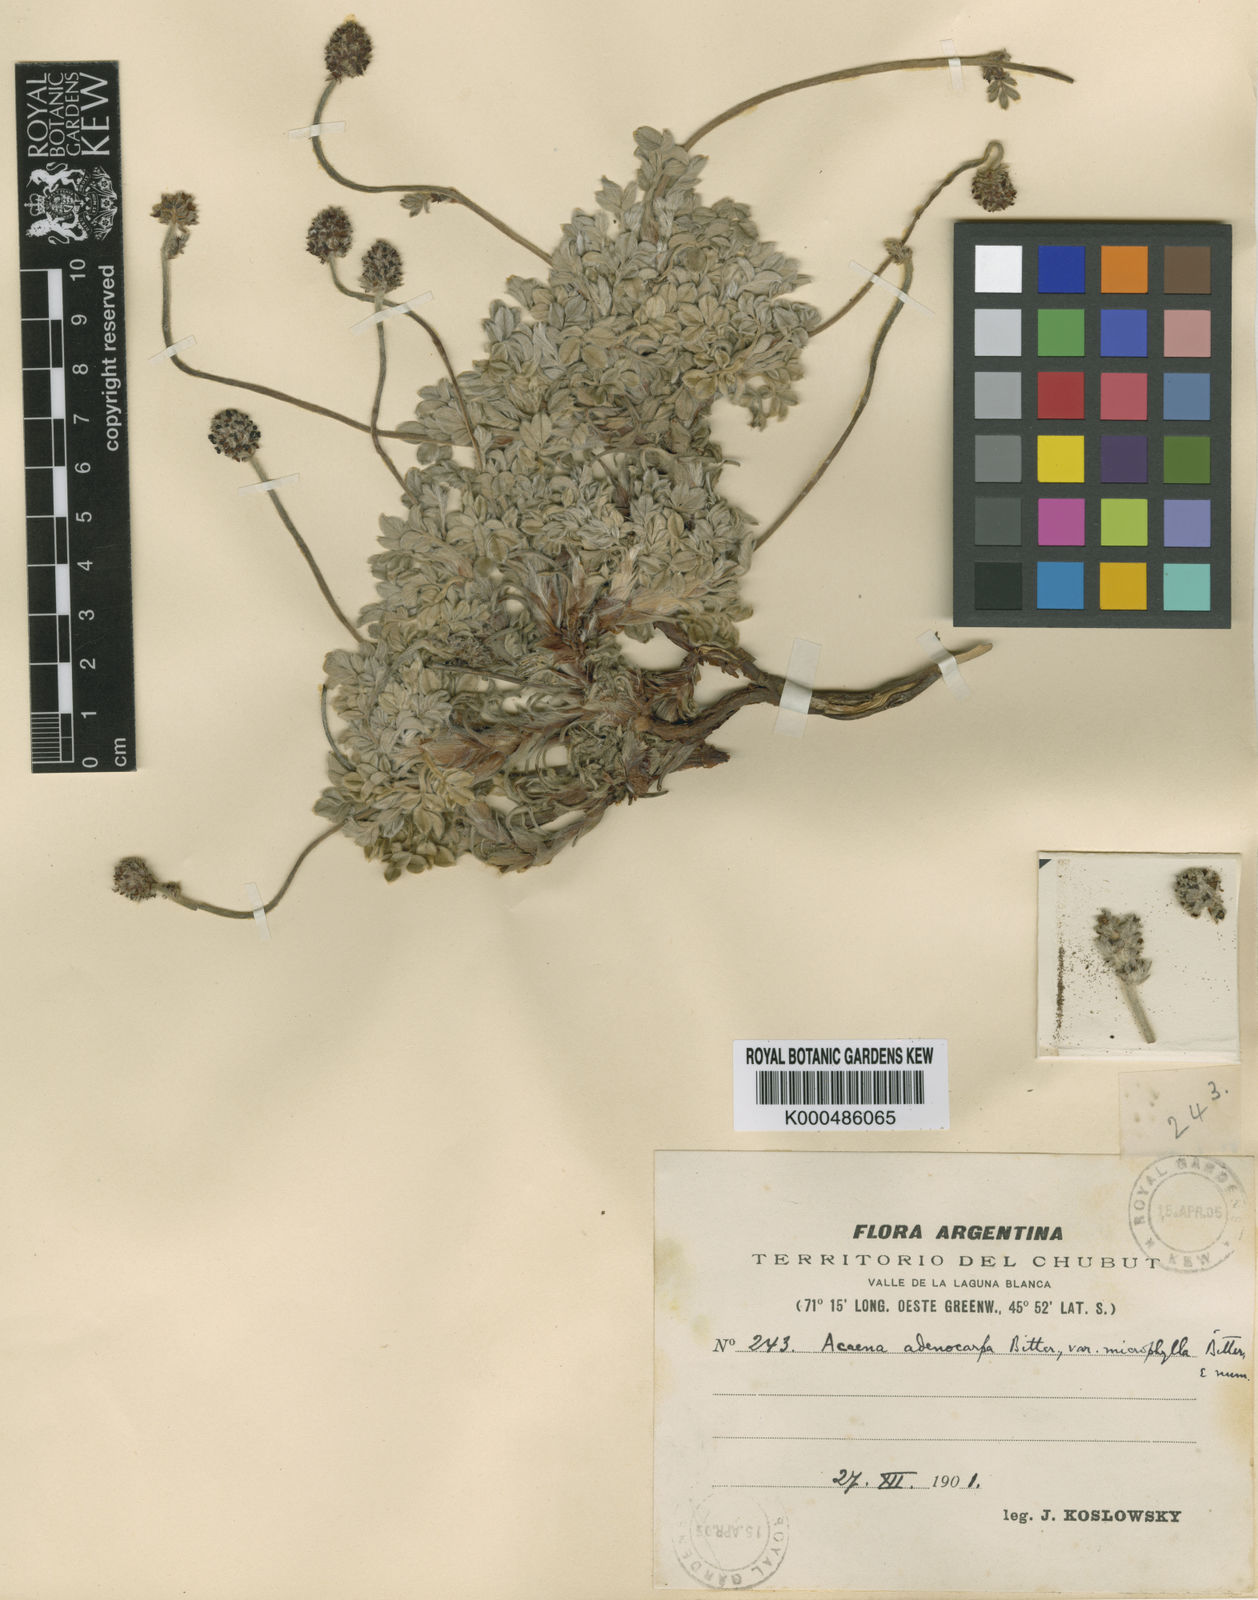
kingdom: Plantae
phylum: Tracheophyta
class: Magnoliopsida
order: Rosales
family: Rosaceae
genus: Acaena
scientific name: Acaena
